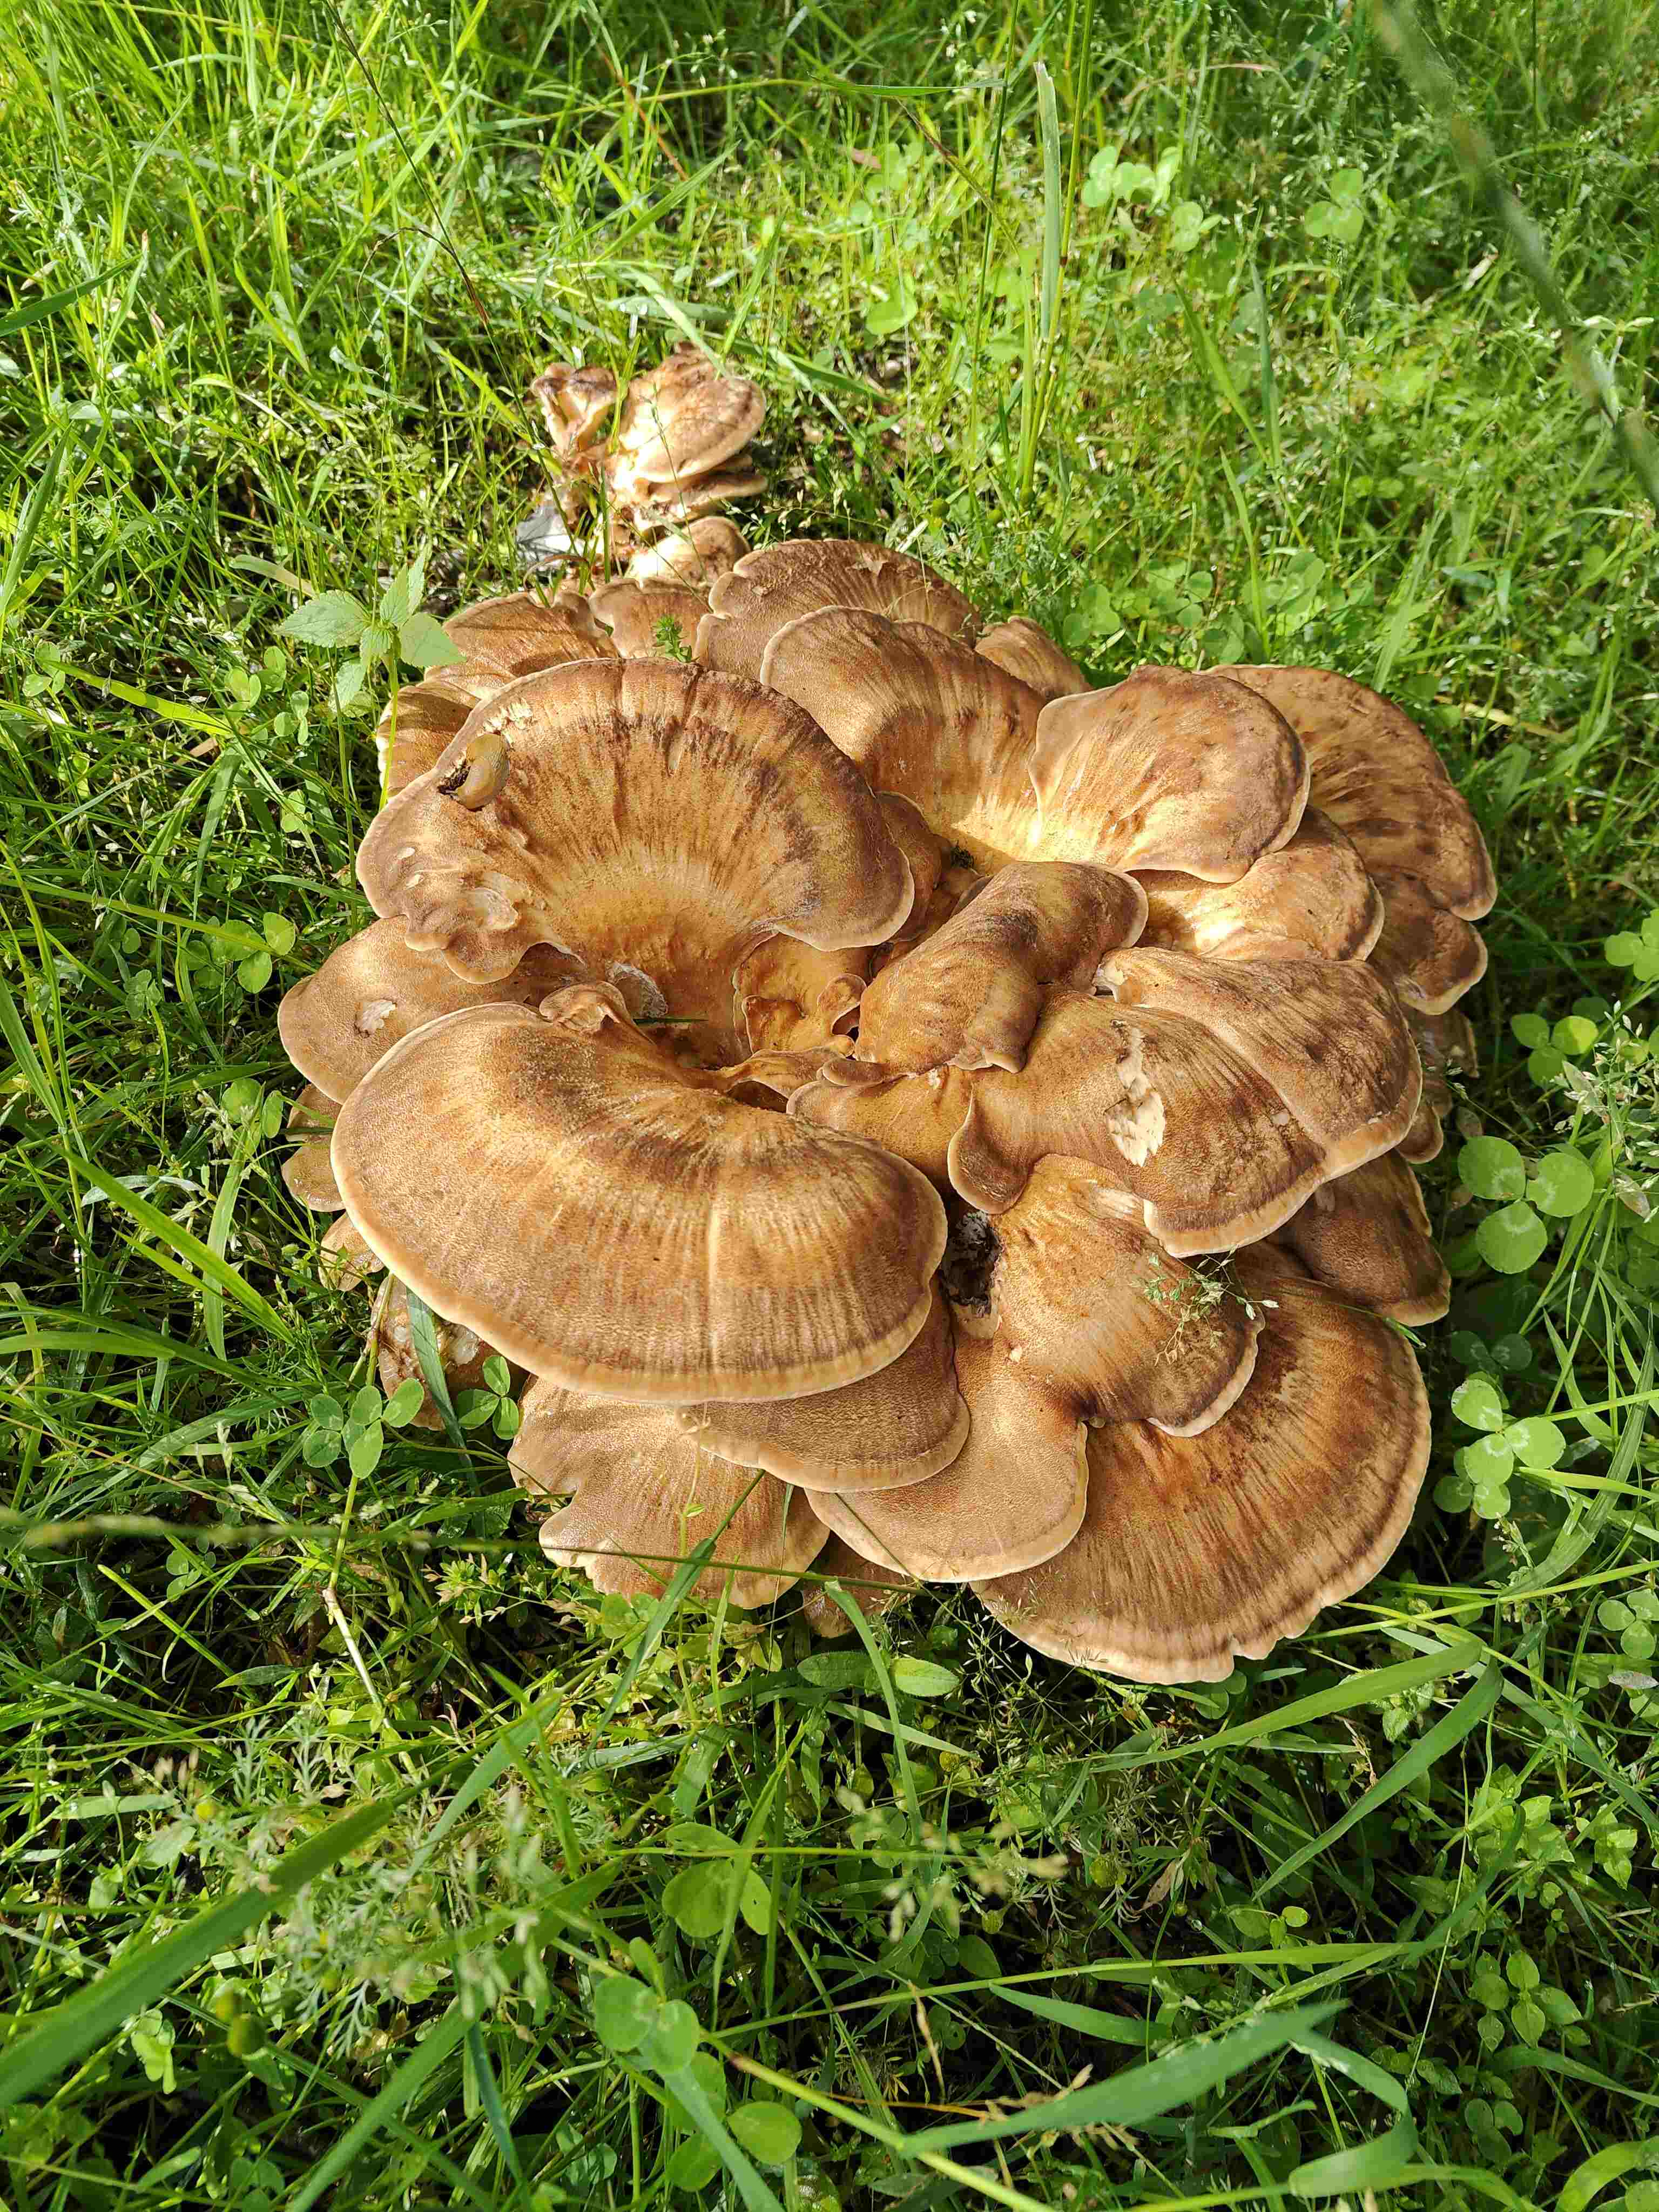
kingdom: Fungi
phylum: Basidiomycota
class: Agaricomycetes
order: Polyporales
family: Meripilaceae
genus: Meripilus
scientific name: Meripilus giganteus
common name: kæmpeporesvamp
